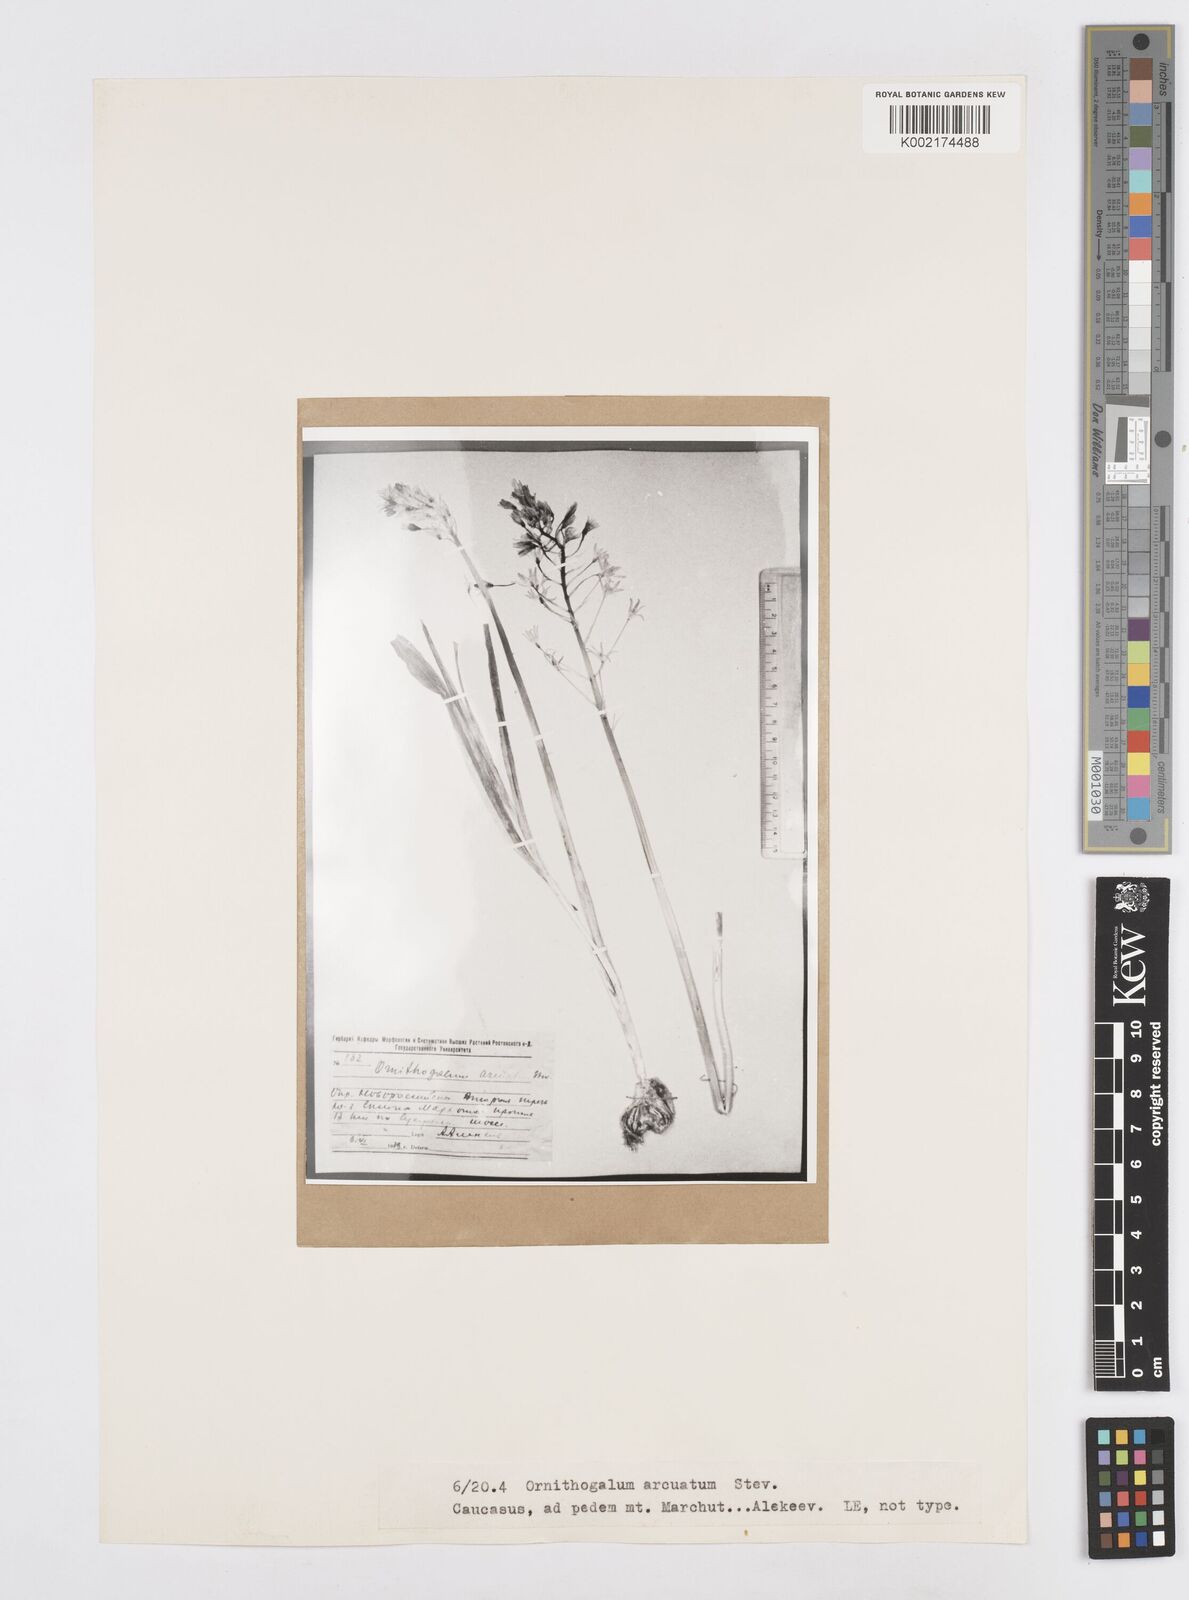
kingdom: Plantae
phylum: Tracheophyta
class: Liliopsida
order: Asparagales
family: Asparagaceae
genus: Ornithogalum
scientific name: Ornithogalum narbonense
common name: Bath-asparagus
